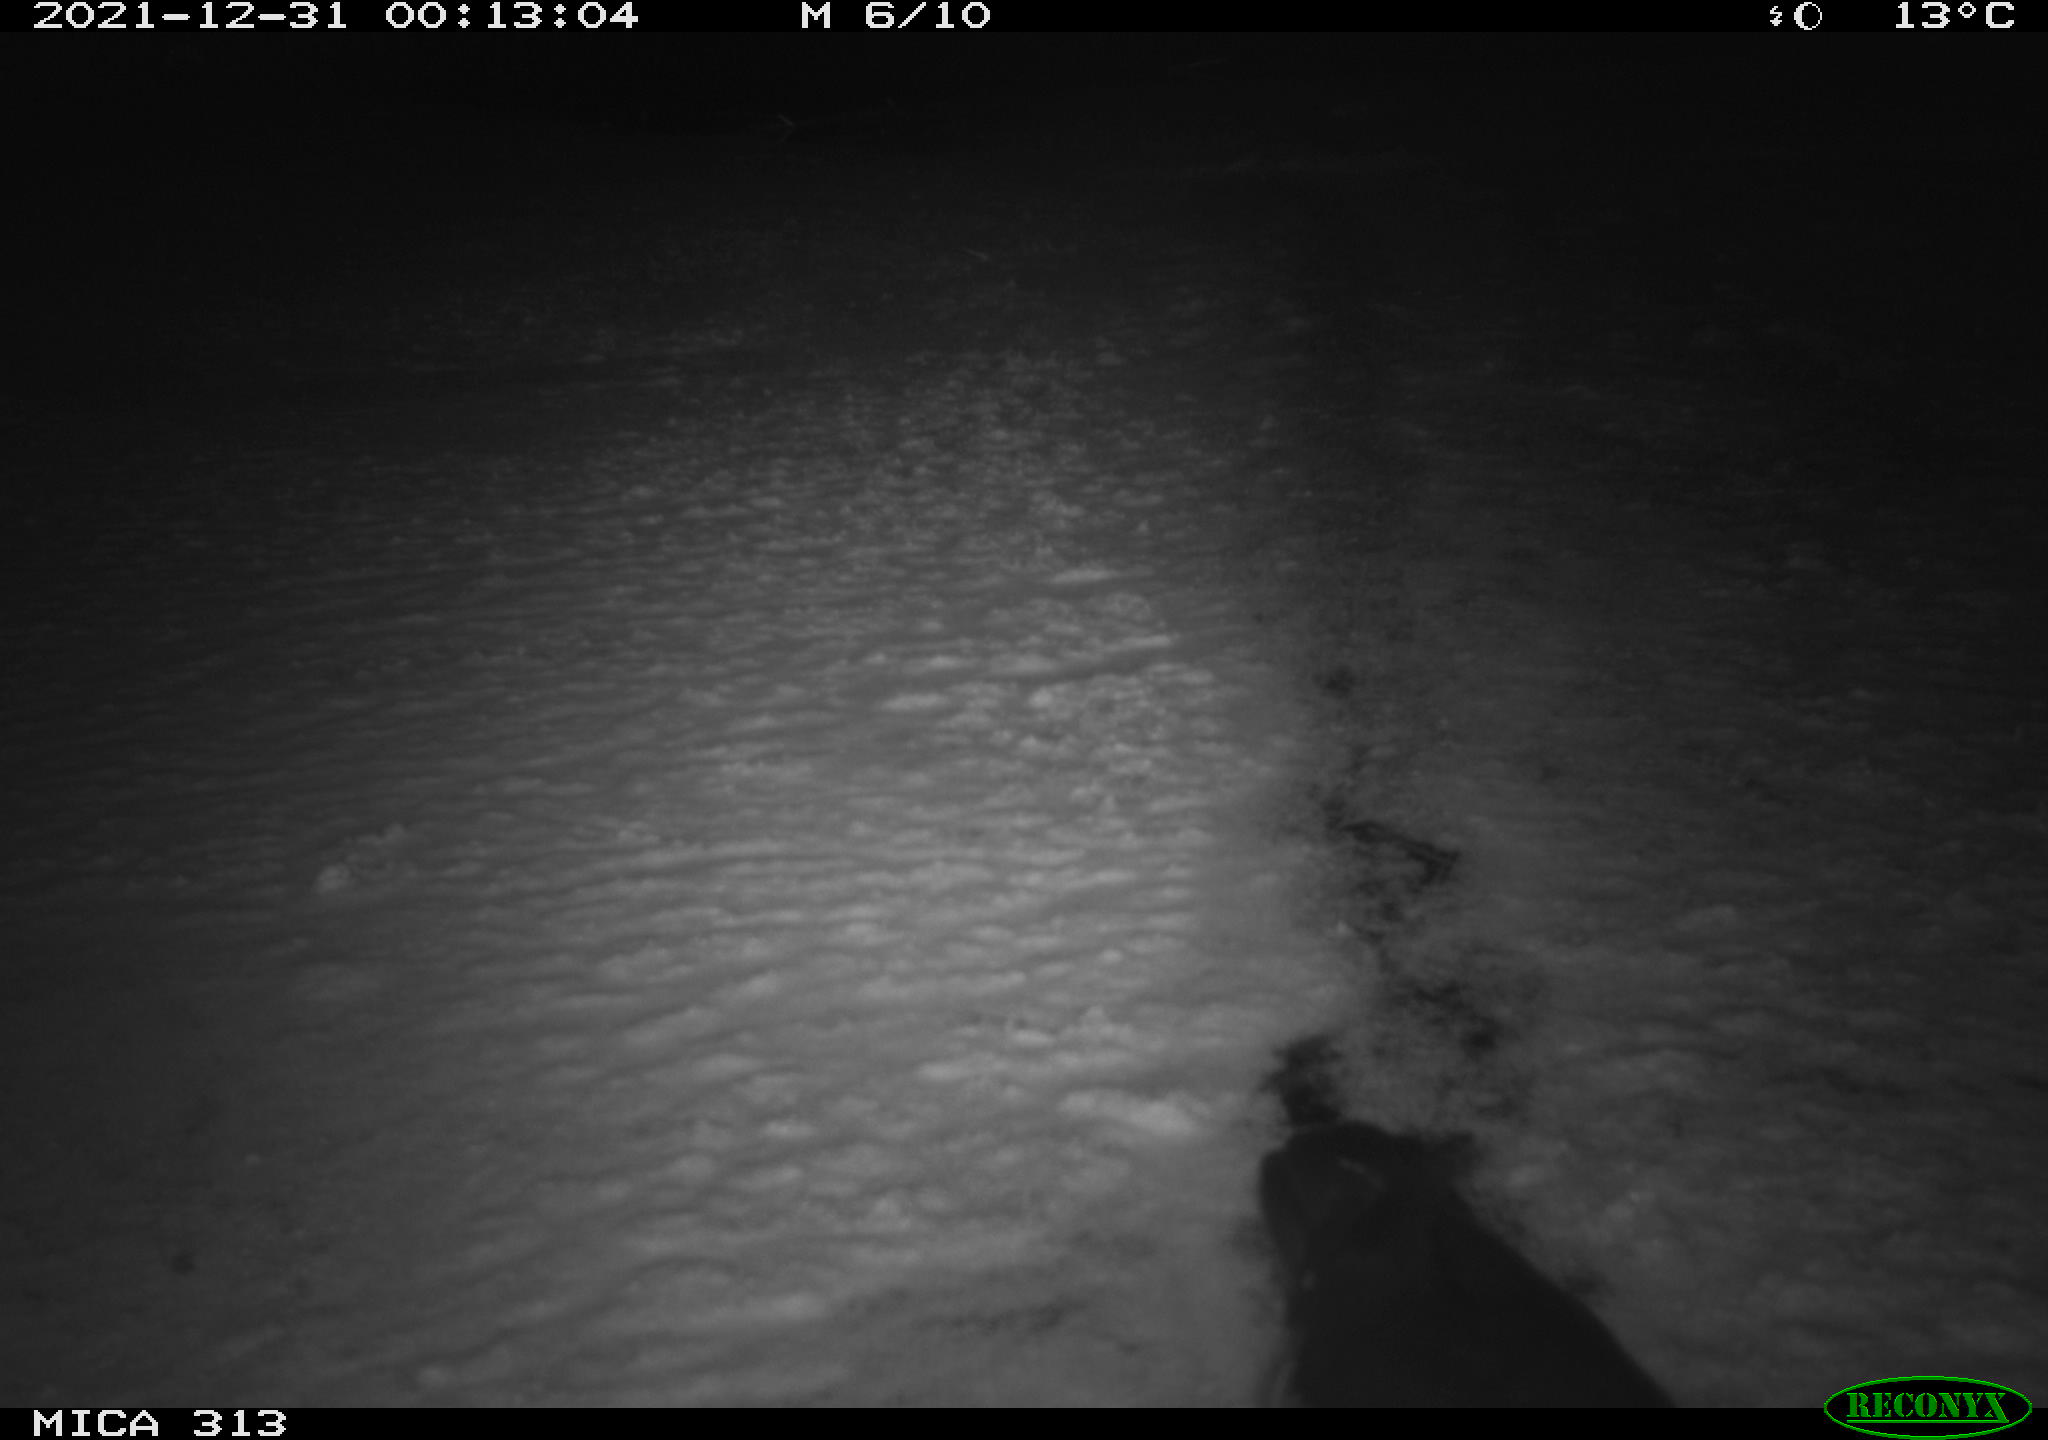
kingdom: Animalia
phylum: Chordata
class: Aves
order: Gruiformes
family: Rallidae
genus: Gallinula
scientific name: Gallinula chloropus
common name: Common moorhen
